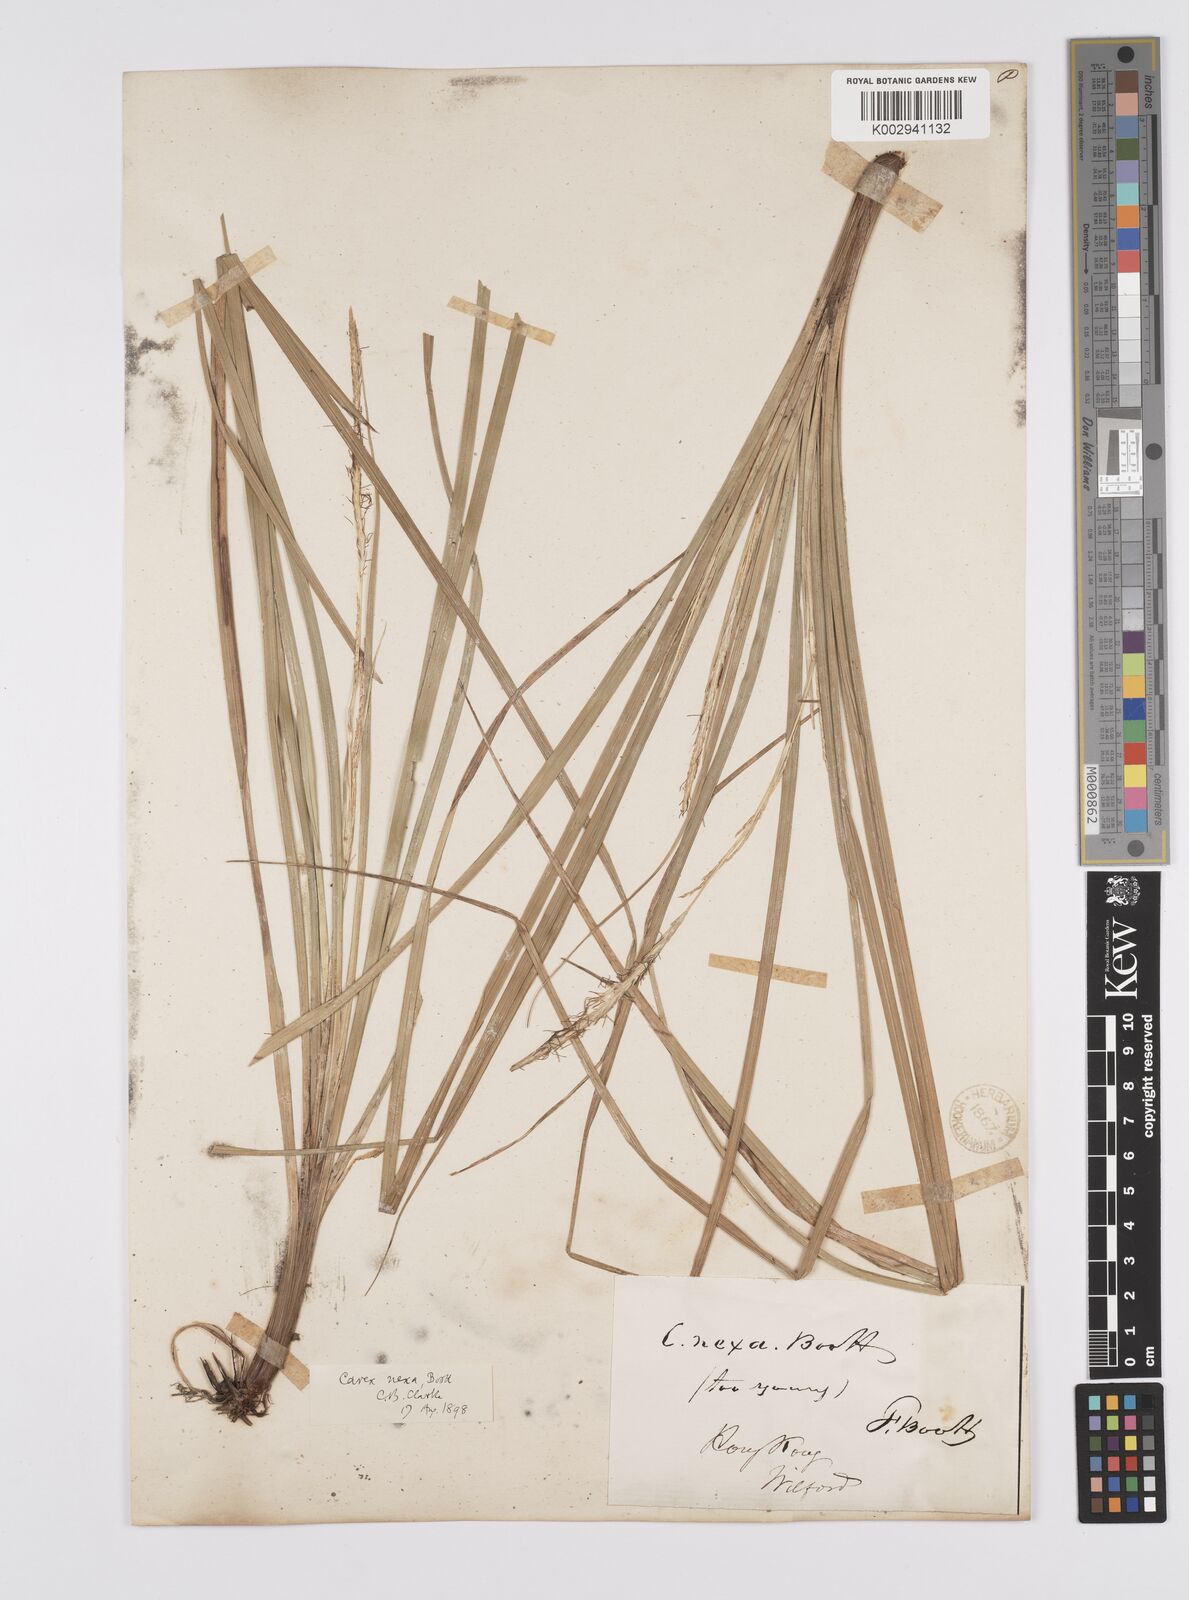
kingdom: Plantae
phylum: Tracheophyta
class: Liliopsida
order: Poales
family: Cyperaceae
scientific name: Cyperaceae
